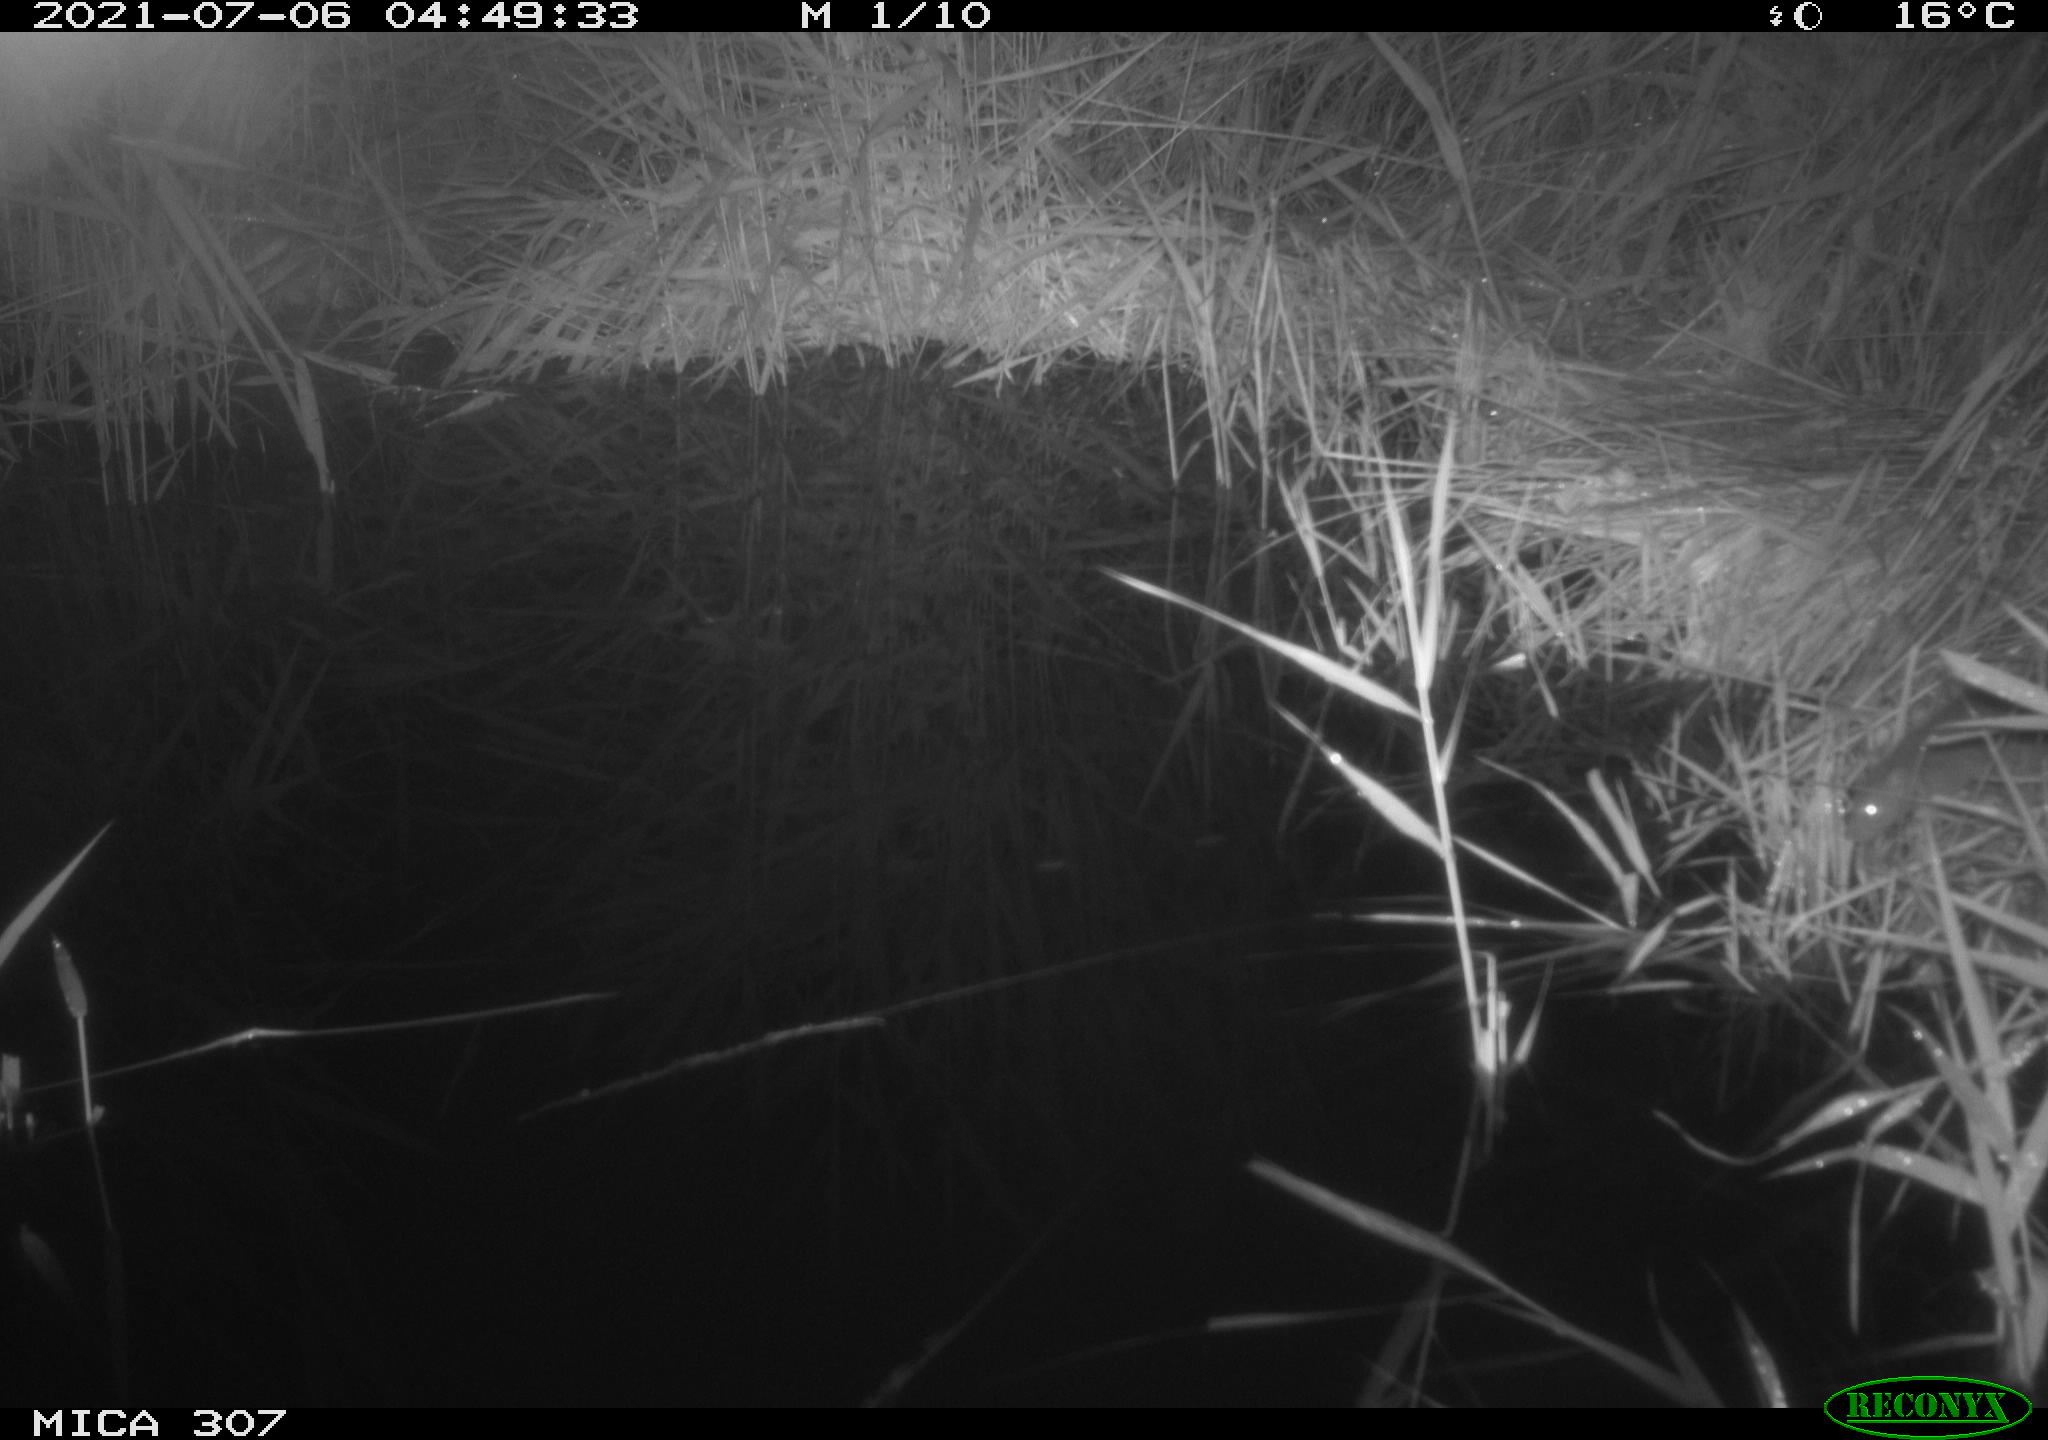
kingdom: Animalia
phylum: Chordata
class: Mammalia
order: Rodentia
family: Muridae
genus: Rattus
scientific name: Rattus norvegicus
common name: Brown rat
